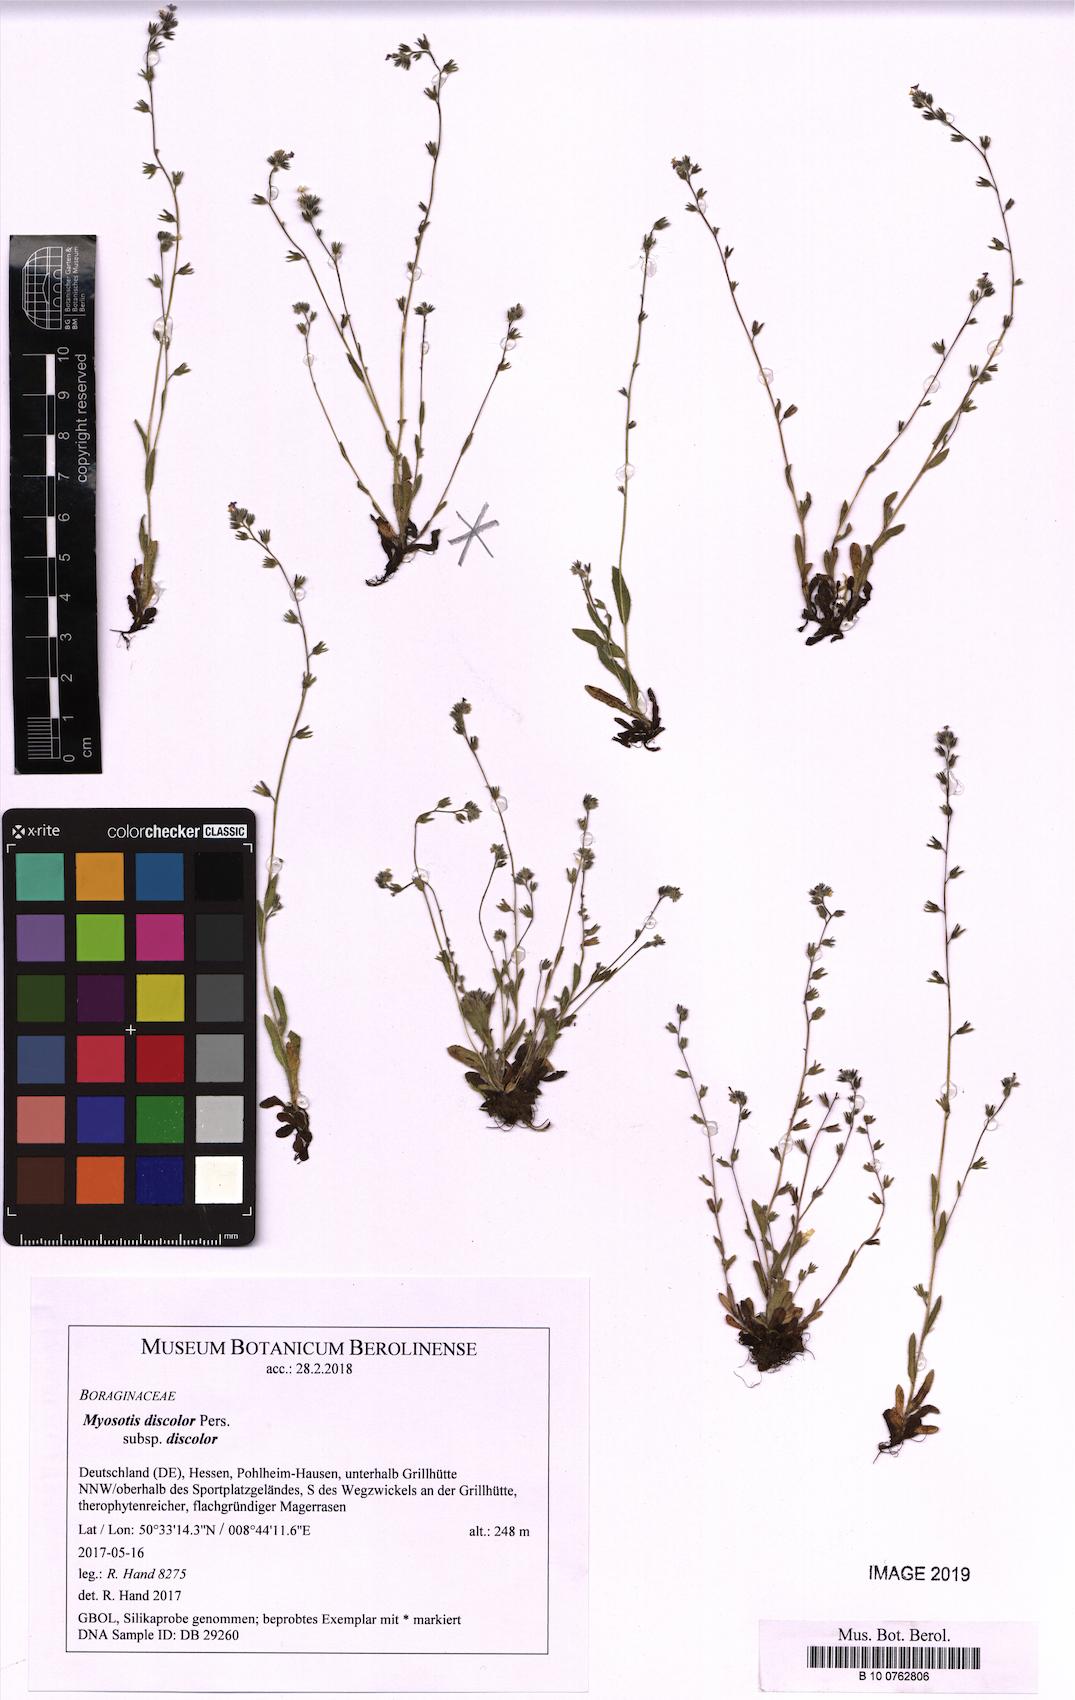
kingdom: Plantae
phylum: Tracheophyta
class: Magnoliopsida
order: Boraginales
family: Boraginaceae
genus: Myosotis
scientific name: Myosotis discolor
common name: Changing forget-me-not
